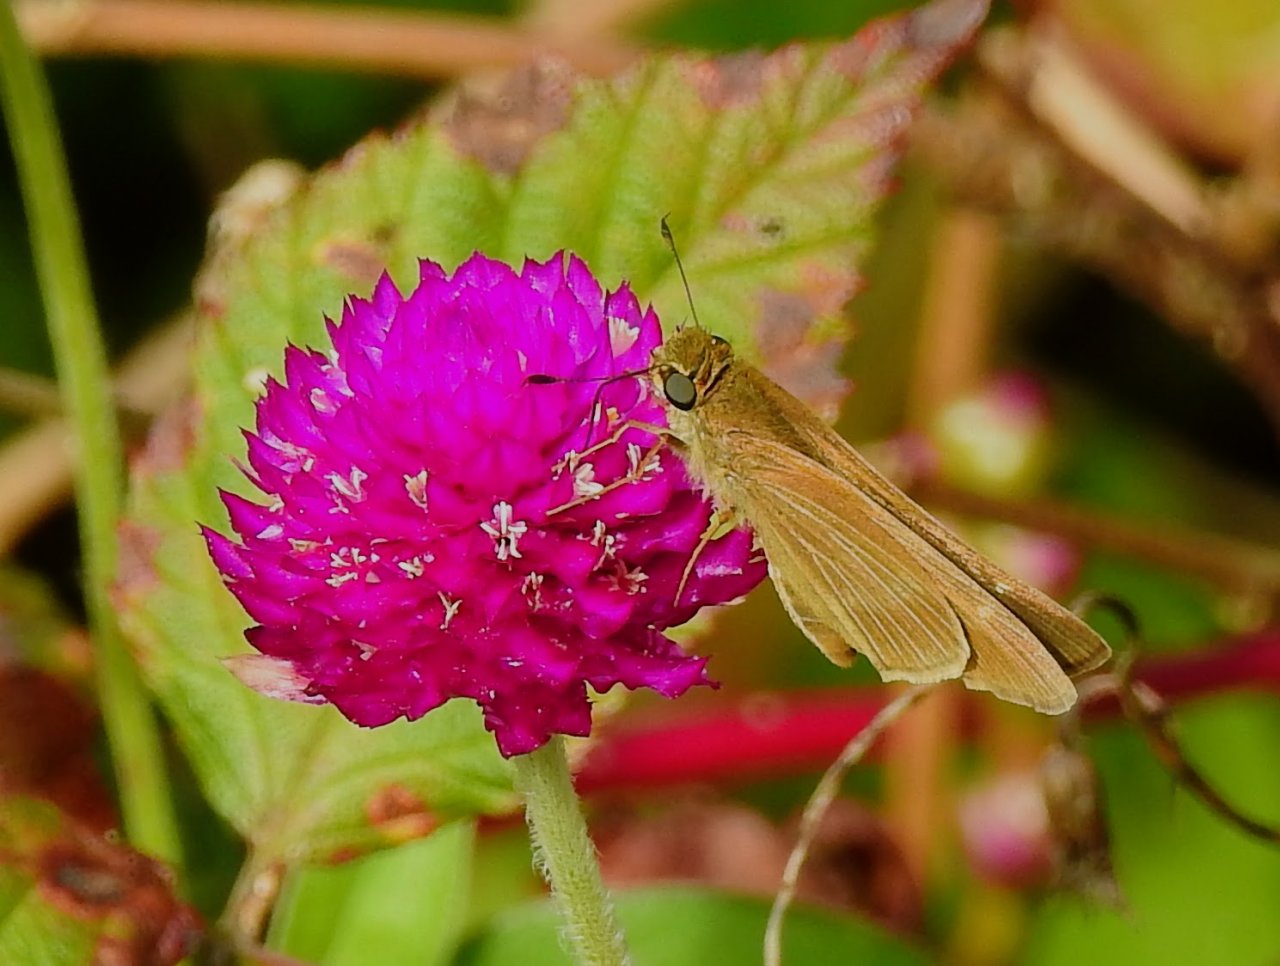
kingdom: Animalia
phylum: Arthropoda
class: Insecta
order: Lepidoptera
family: Hesperiidae
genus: Panoquina
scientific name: Panoquina ocola
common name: Ocola Skipper
